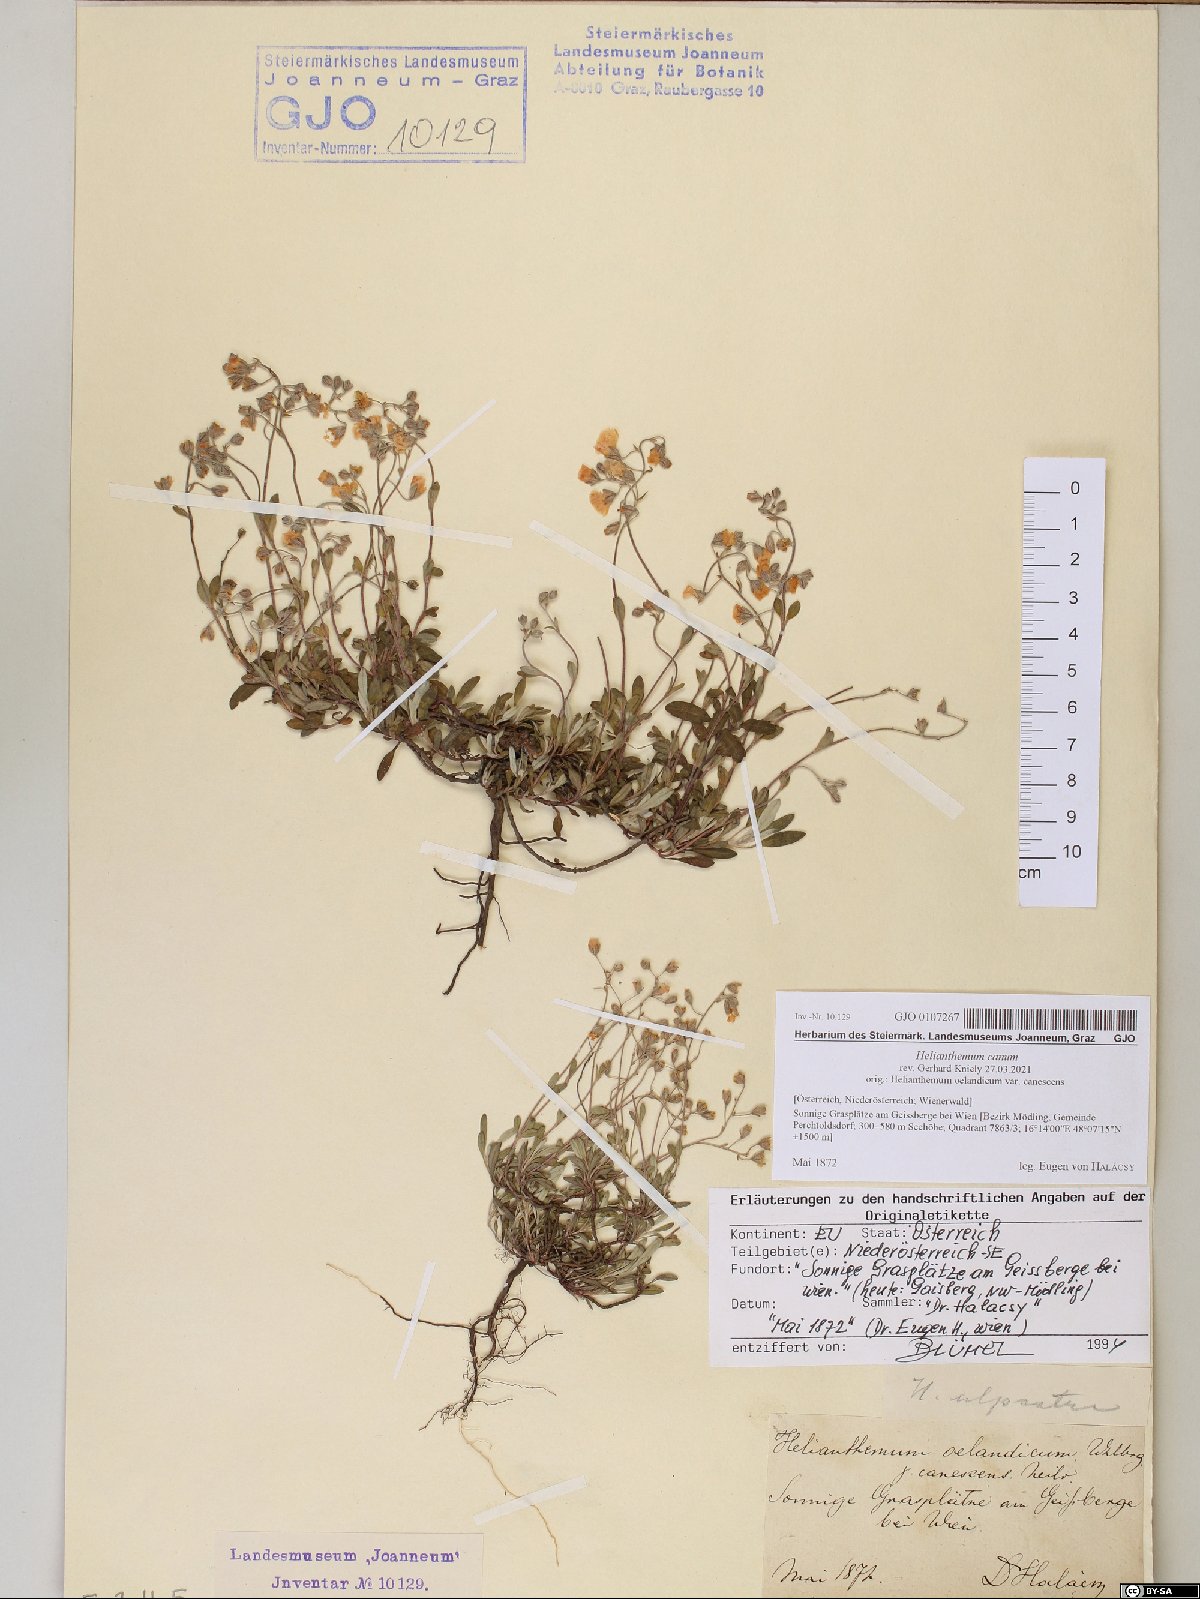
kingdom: Plantae
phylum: Tracheophyta
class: Magnoliopsida
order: Malvales
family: Cistaceae
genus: Helianthemum
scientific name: Helianthemum canum
